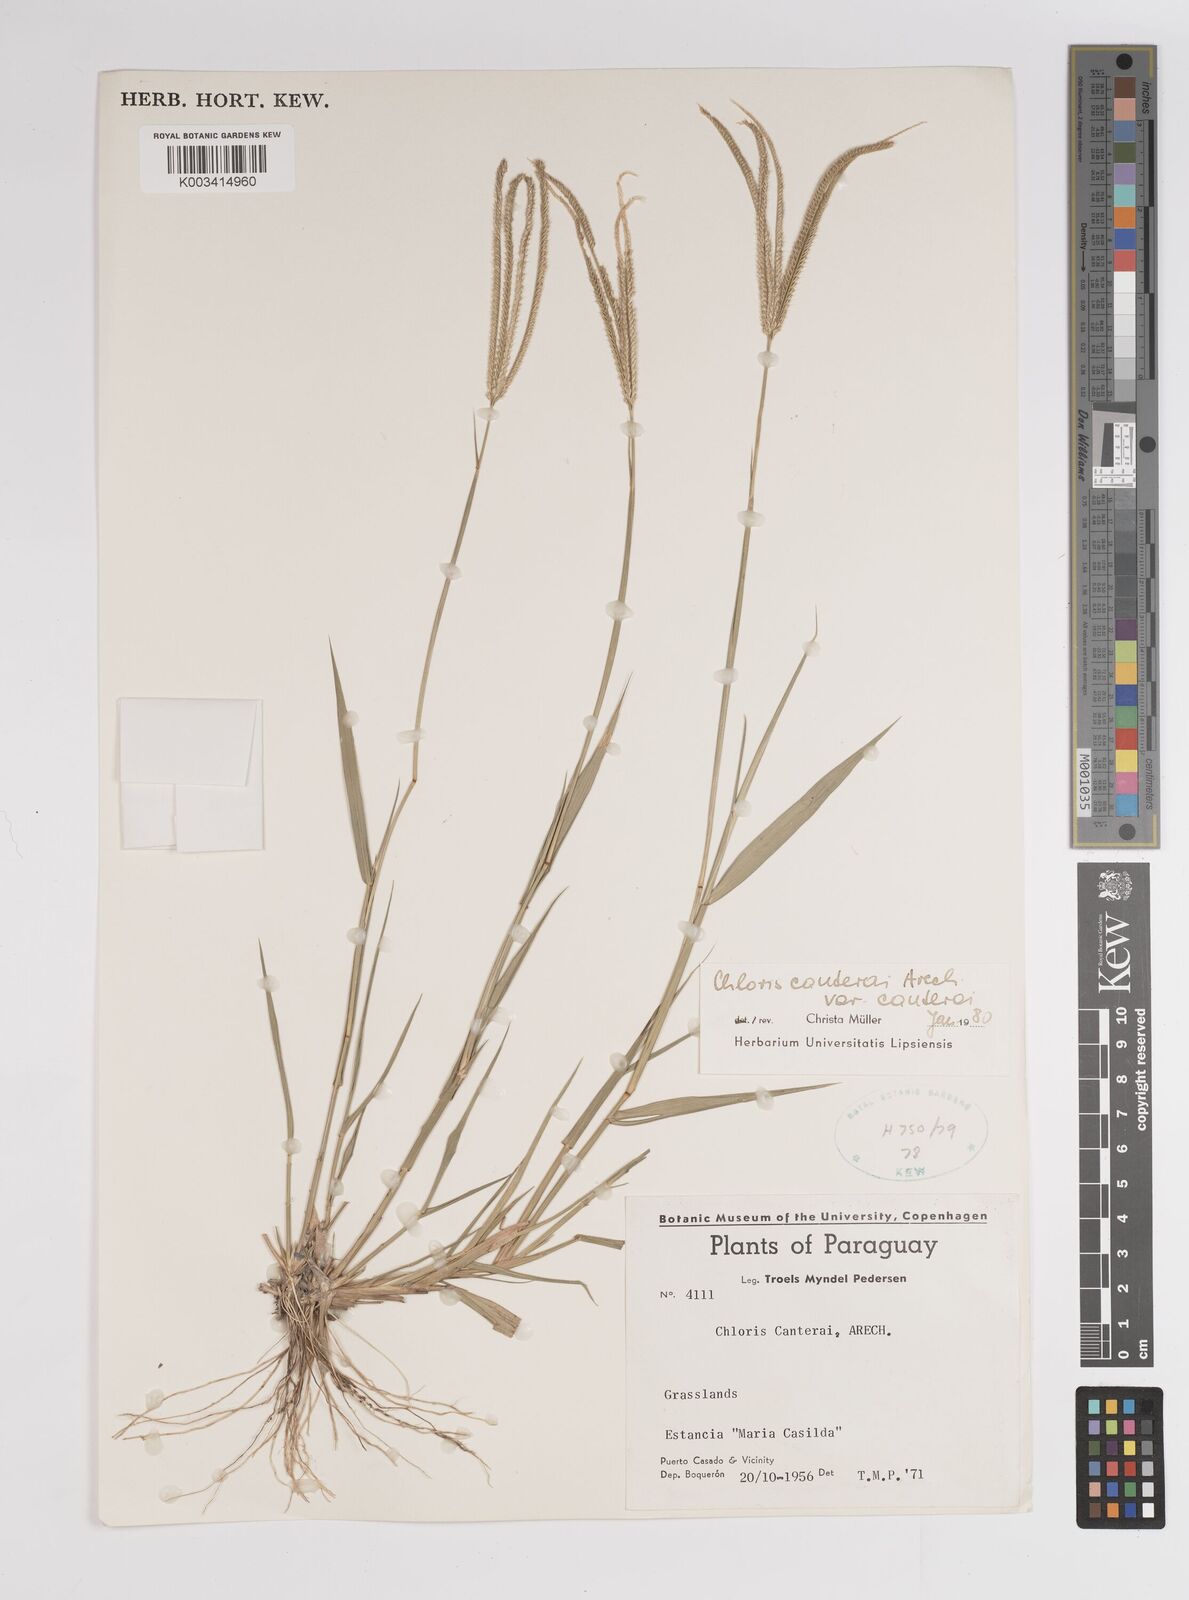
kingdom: Plantae
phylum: Tracheophyta
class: Liliopsida
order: Poales
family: Poaceae
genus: Stapfochloa
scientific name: Stapfochloa canterae
